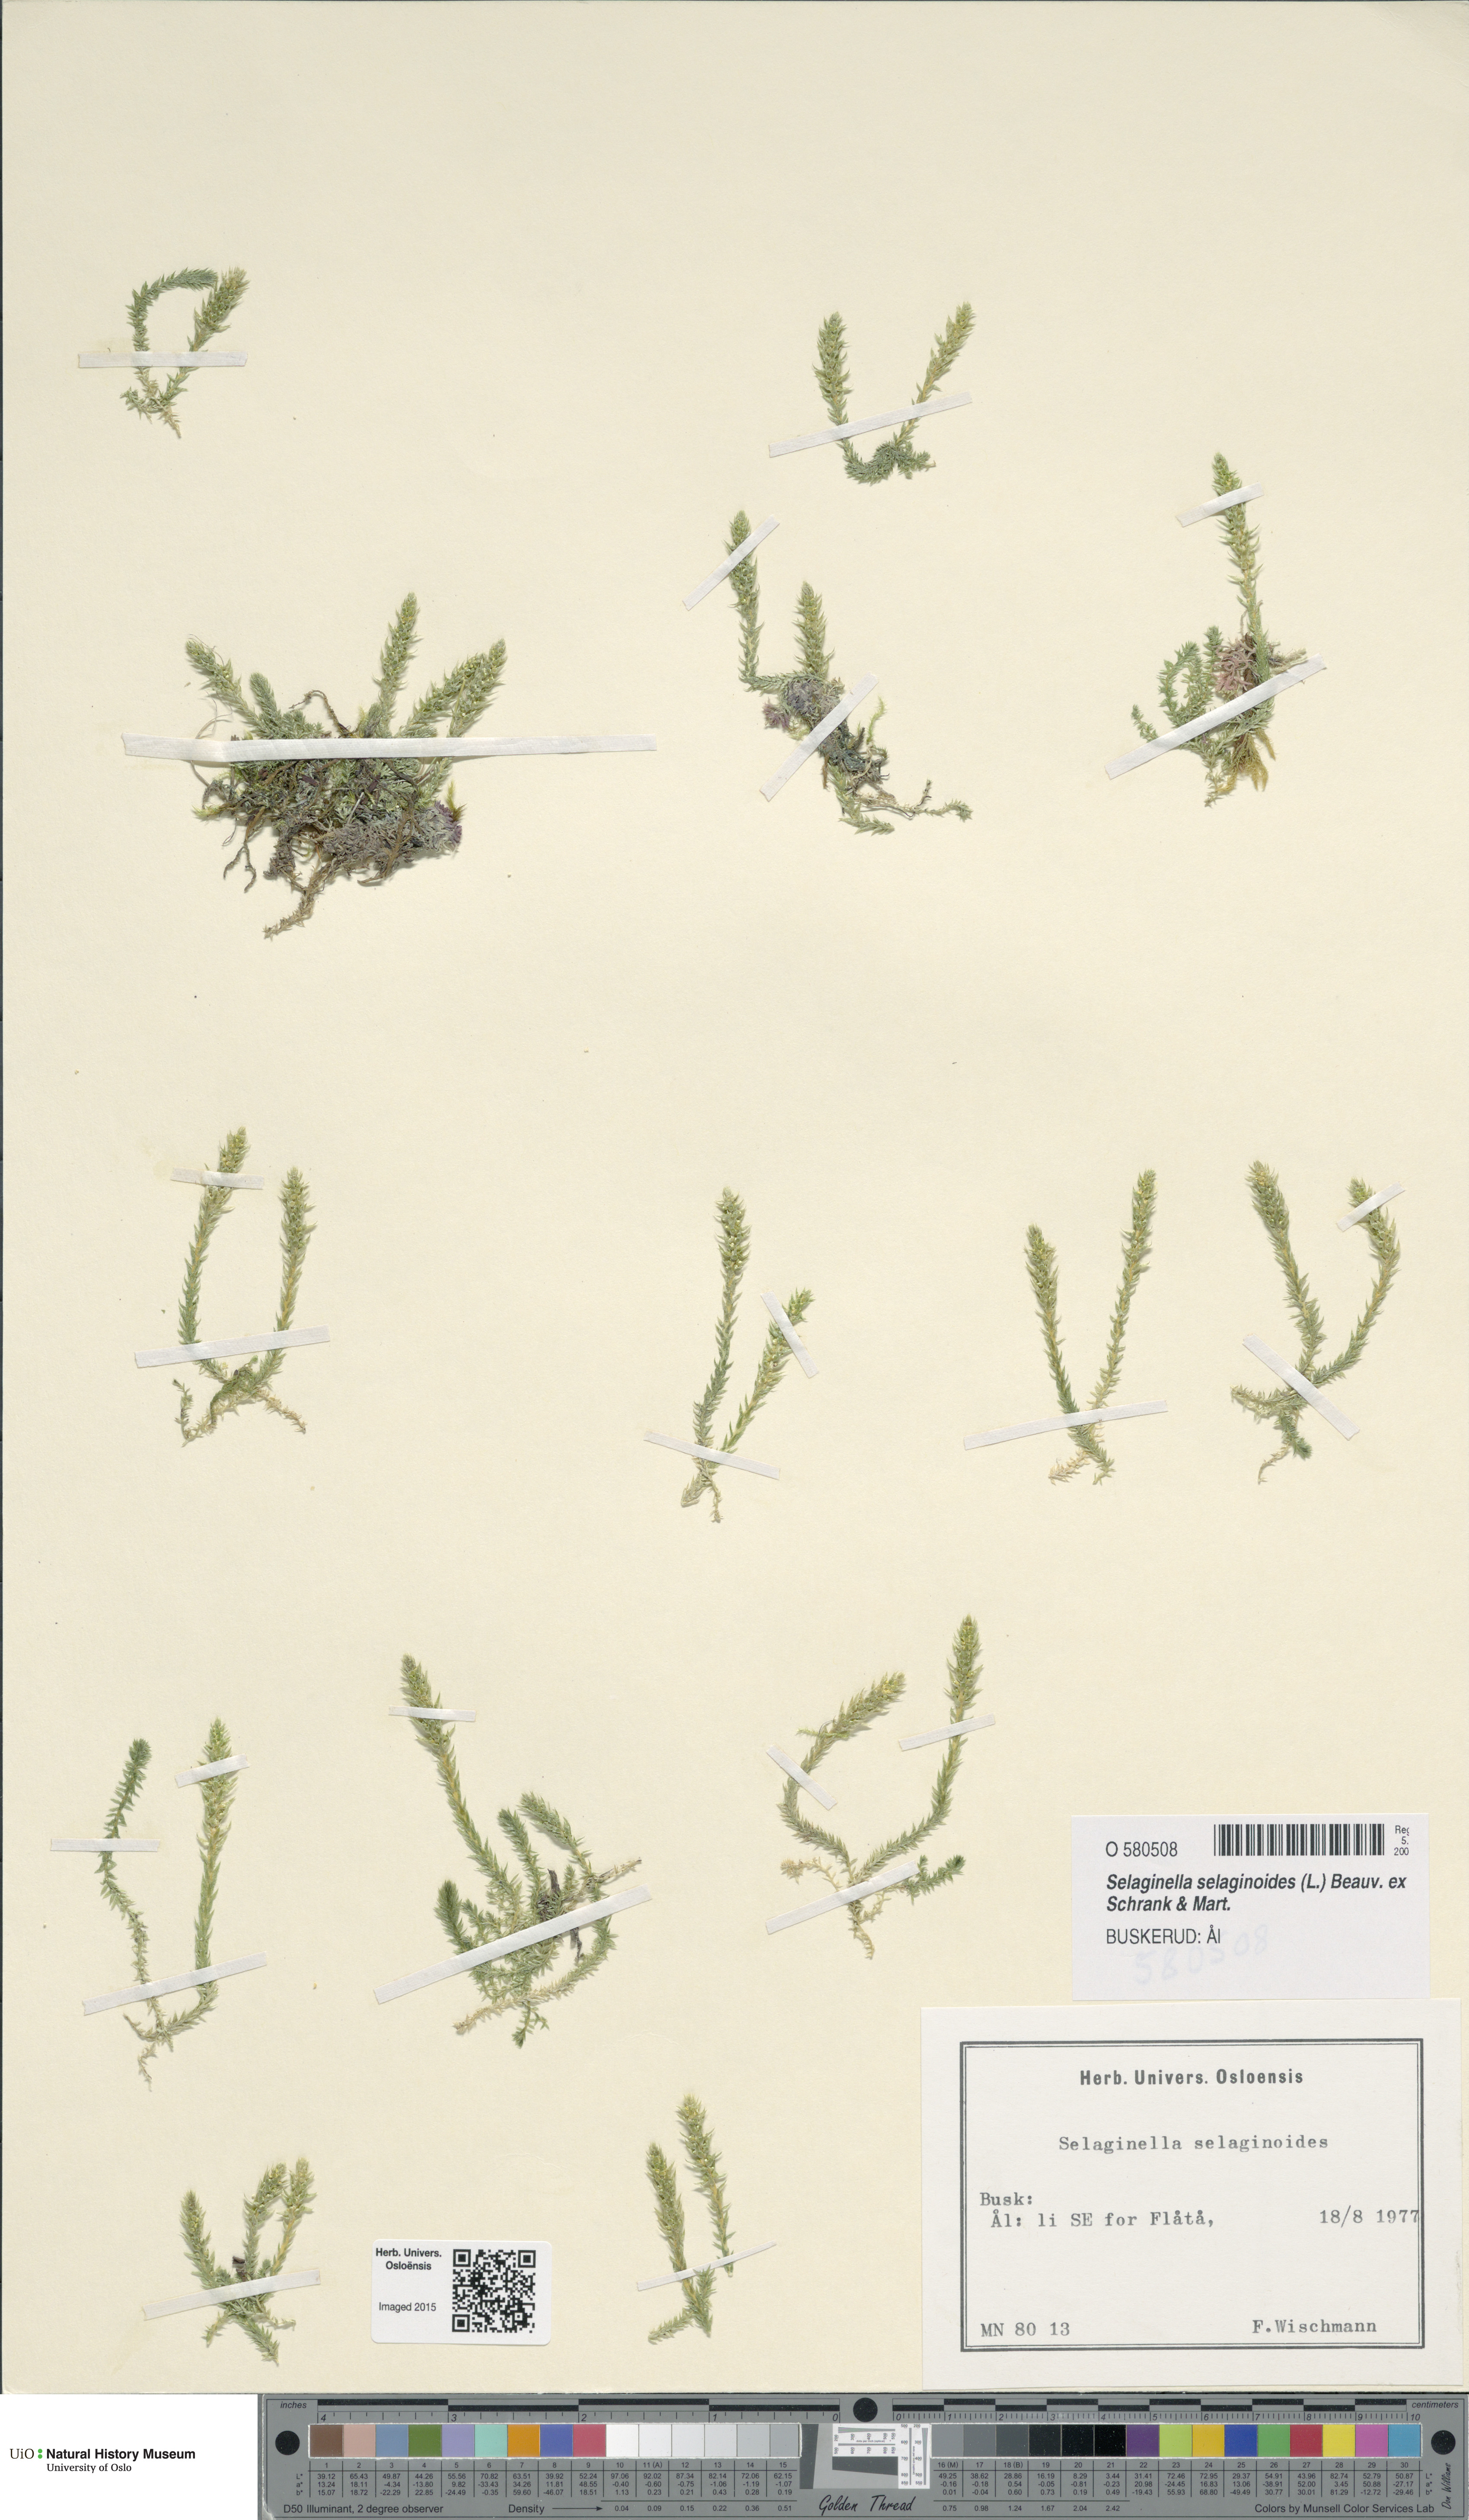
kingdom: Plantae
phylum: Tracheophyta
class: Lycopodiopsida
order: Selaginellales
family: Selaginellaceae
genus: Selaginella
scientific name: Selaginella selaginoides
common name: Prickly mountain-moss
